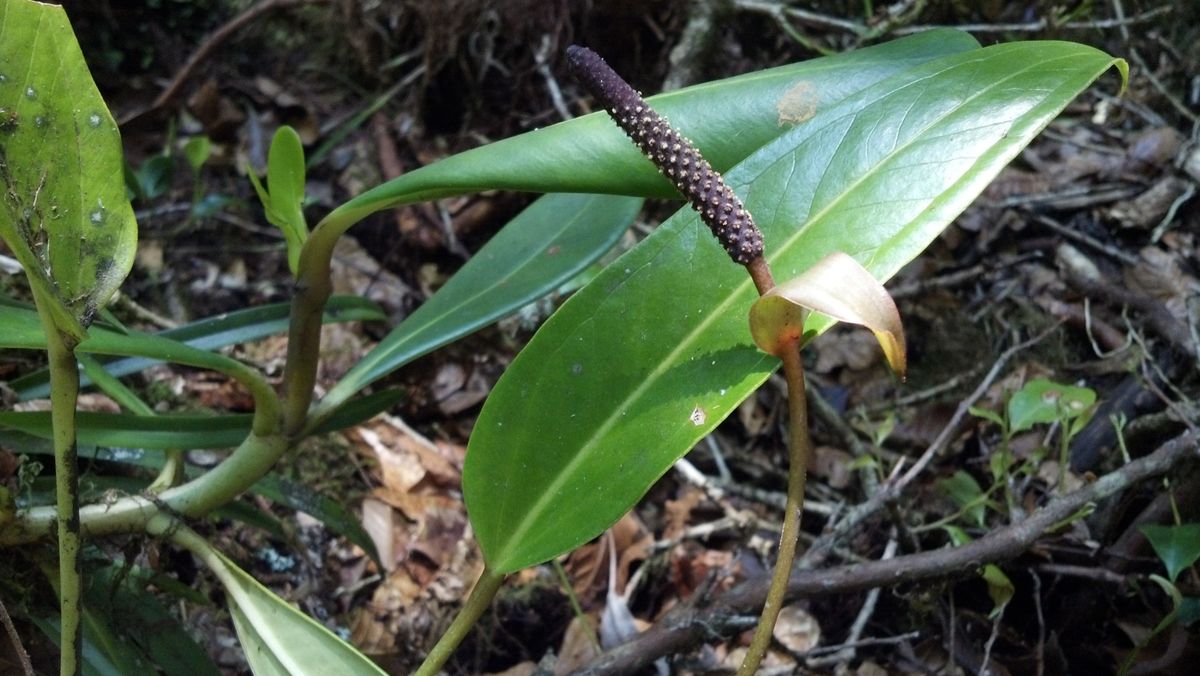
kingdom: Plantae
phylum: Tracheophyta
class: Liliopsida
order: Alismatales
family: Araceae
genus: Anthurium
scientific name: Anthurium subcordatum
